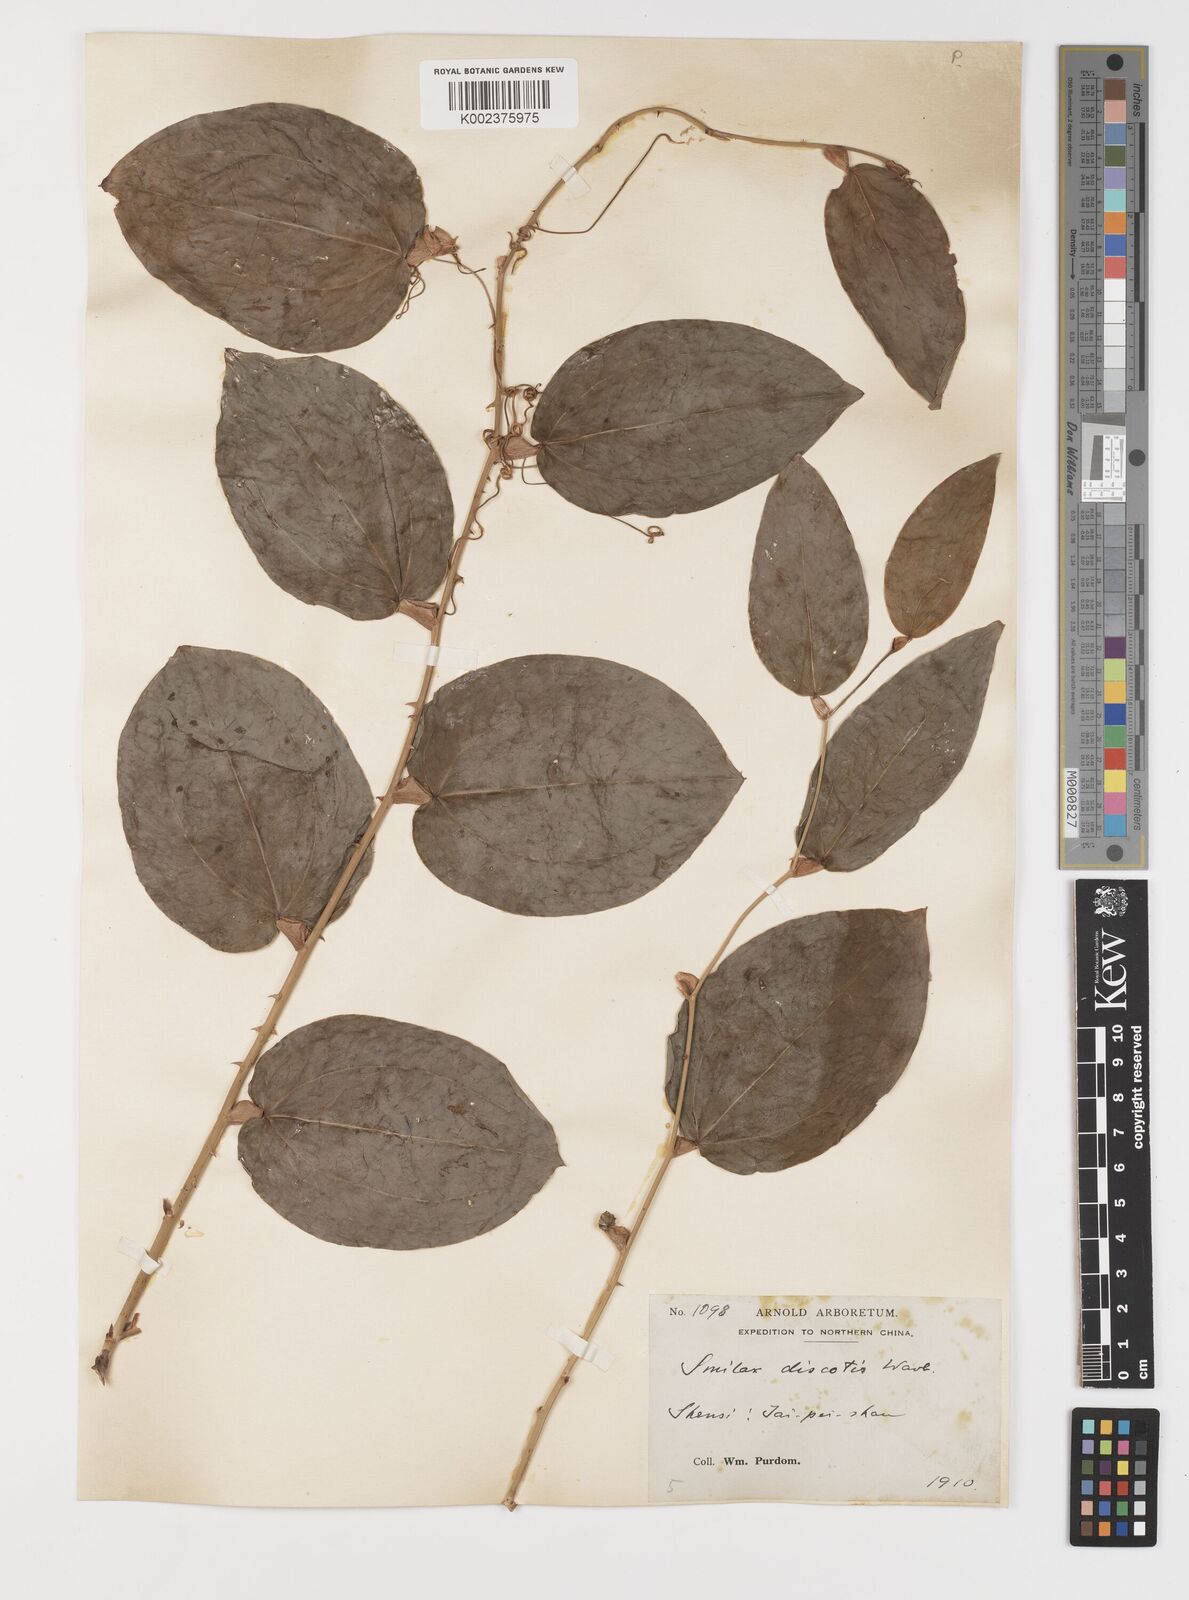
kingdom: Plantae
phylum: Tracheophyta
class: Liliopsida
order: Liliales
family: Smilacaceae
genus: Smilax
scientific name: Smilax discotis
